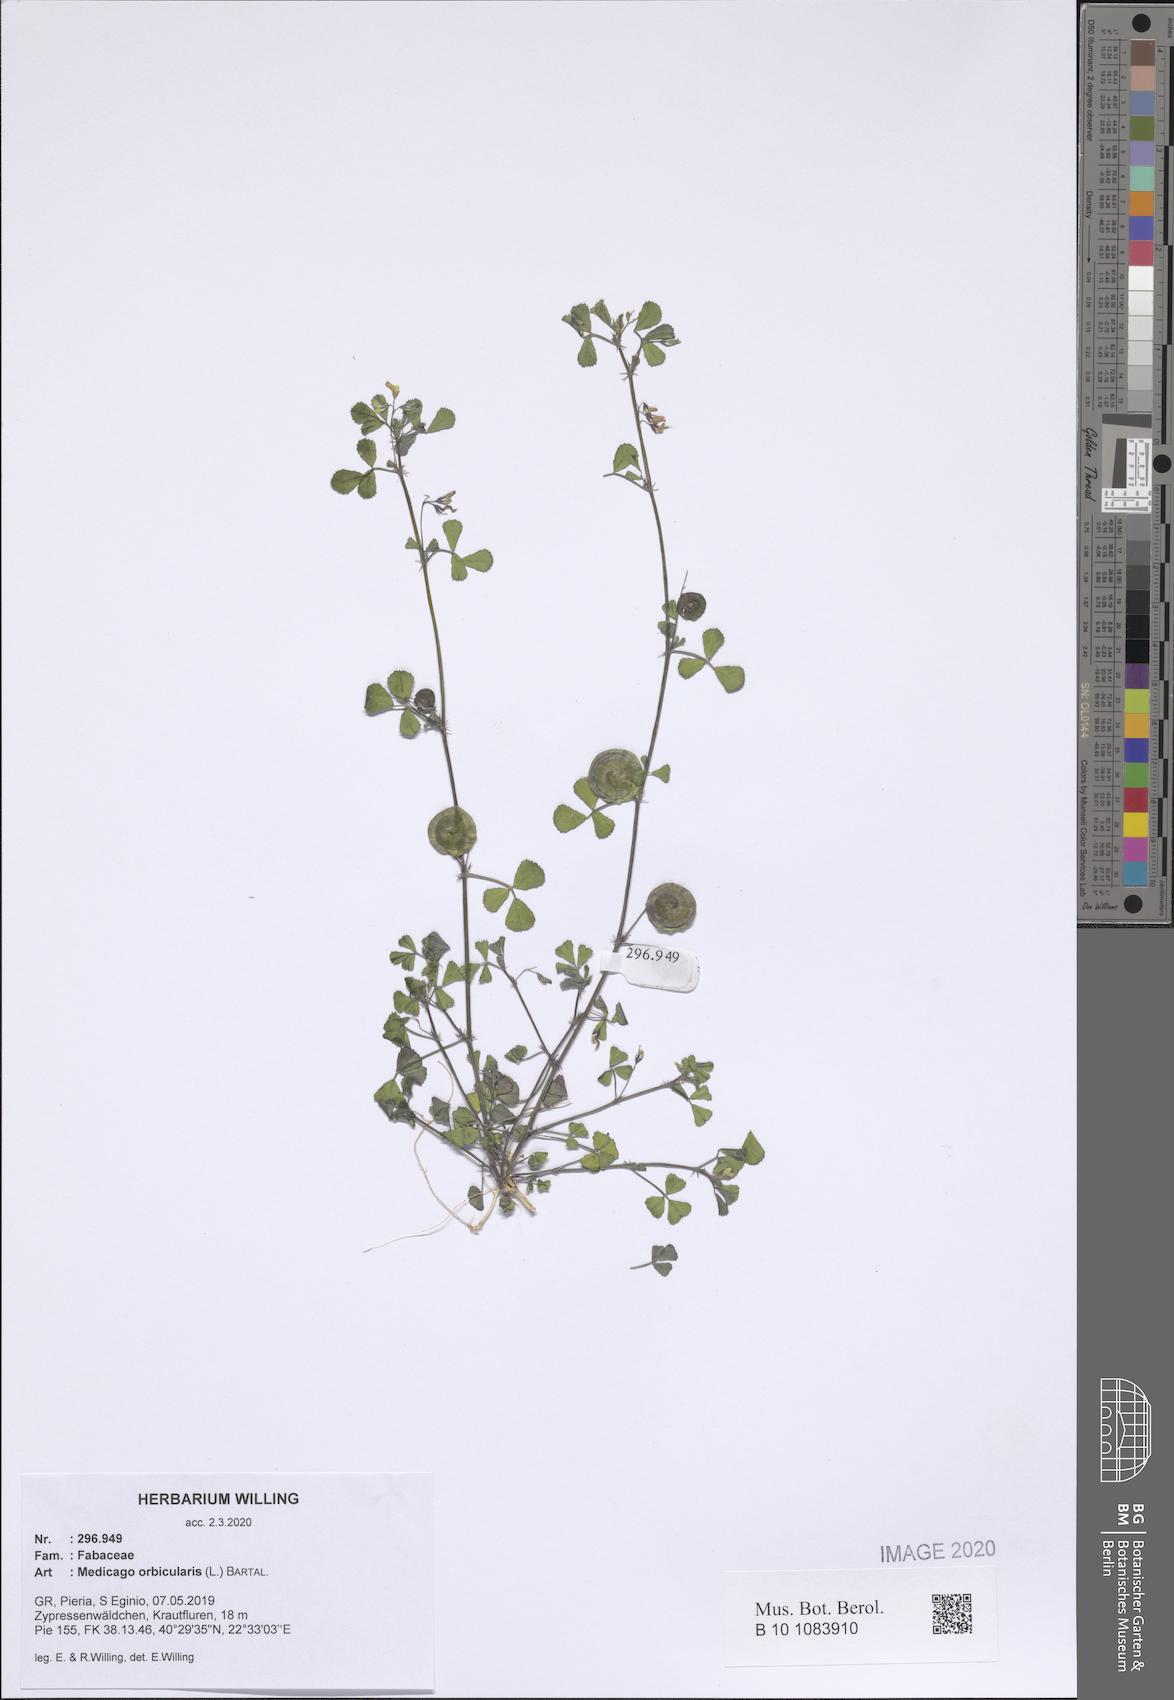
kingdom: Plantae
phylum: Tracheophyta
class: Magnoliopsida
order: Fabales
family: Fabaceae
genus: Medicago
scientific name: Medicago orbicularis
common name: Button medick
